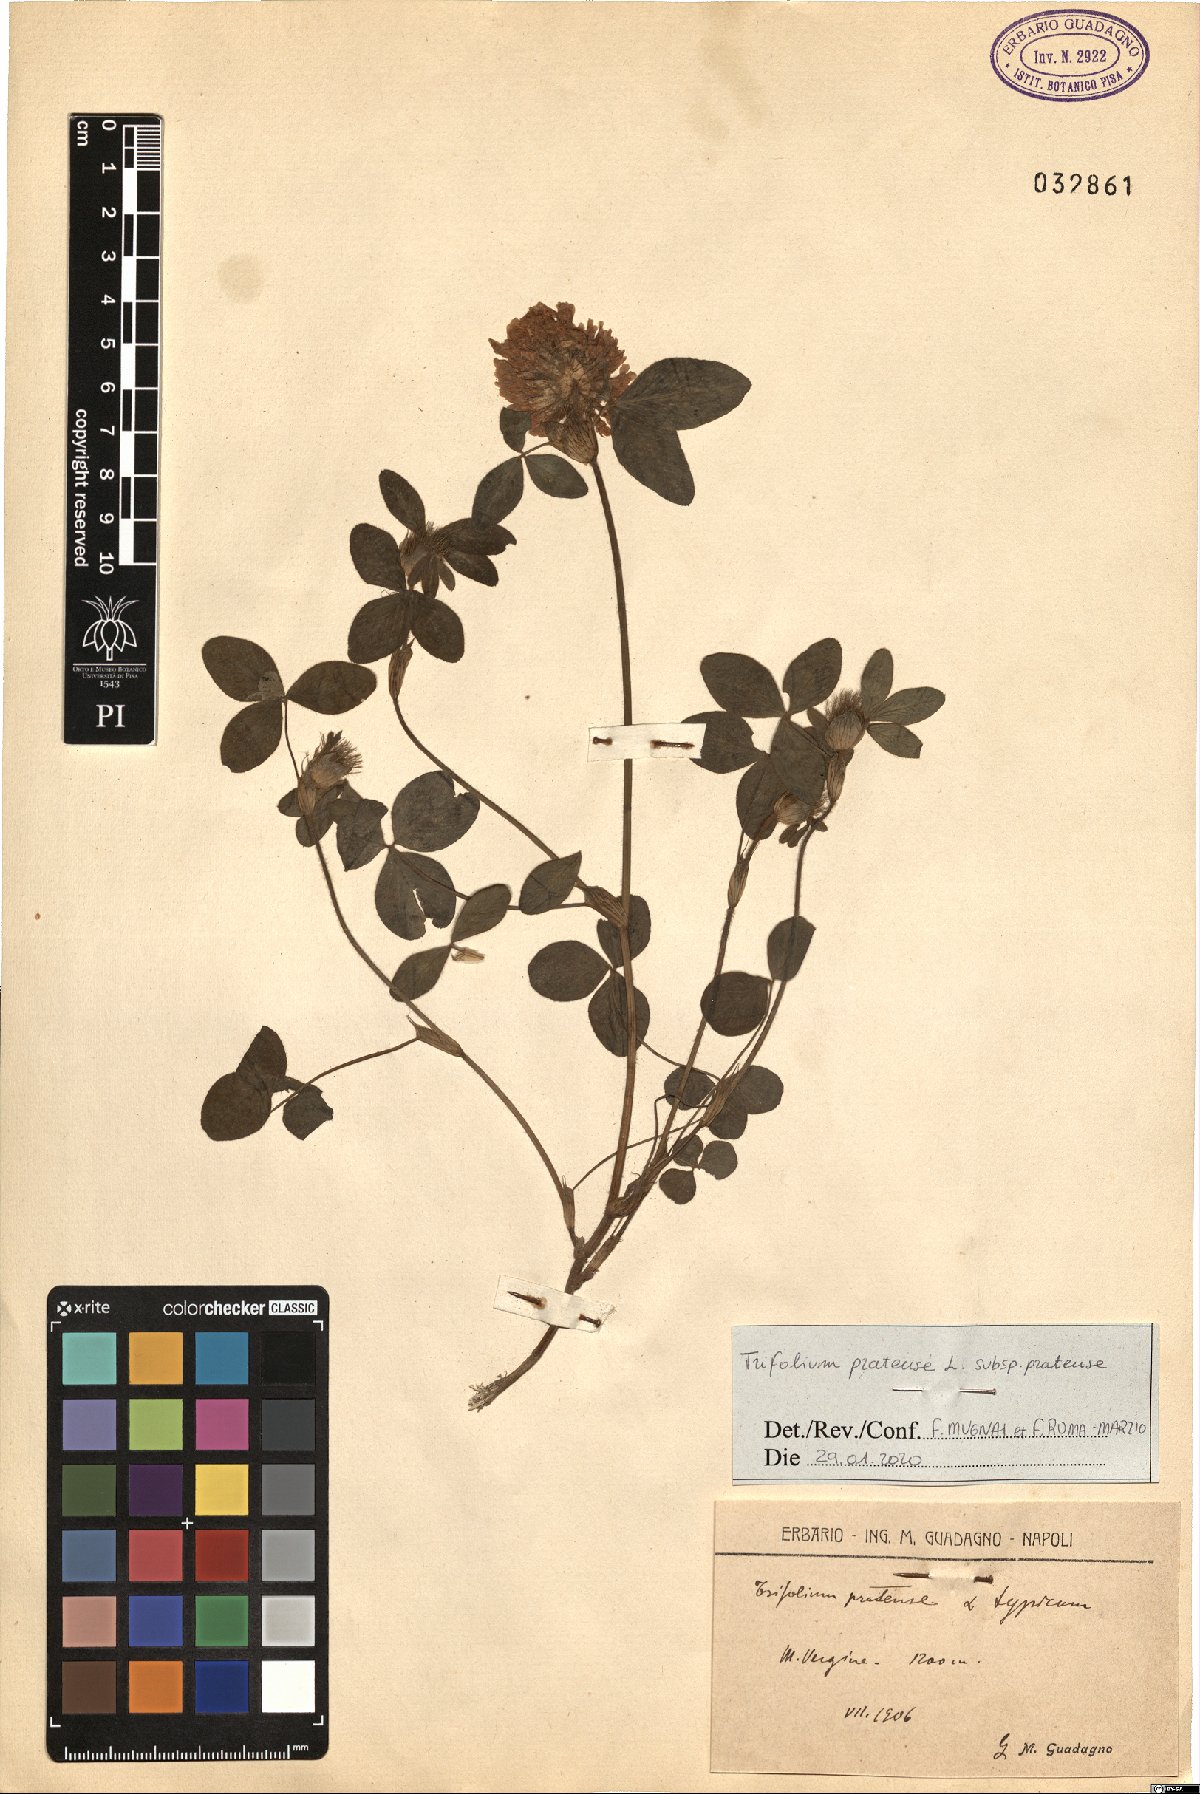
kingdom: Plantae
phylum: Tracheophyta
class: Magnoliopsida
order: Fabales
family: Fabaceae
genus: Trifolium
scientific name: Trifolium pratense
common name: Red clover
